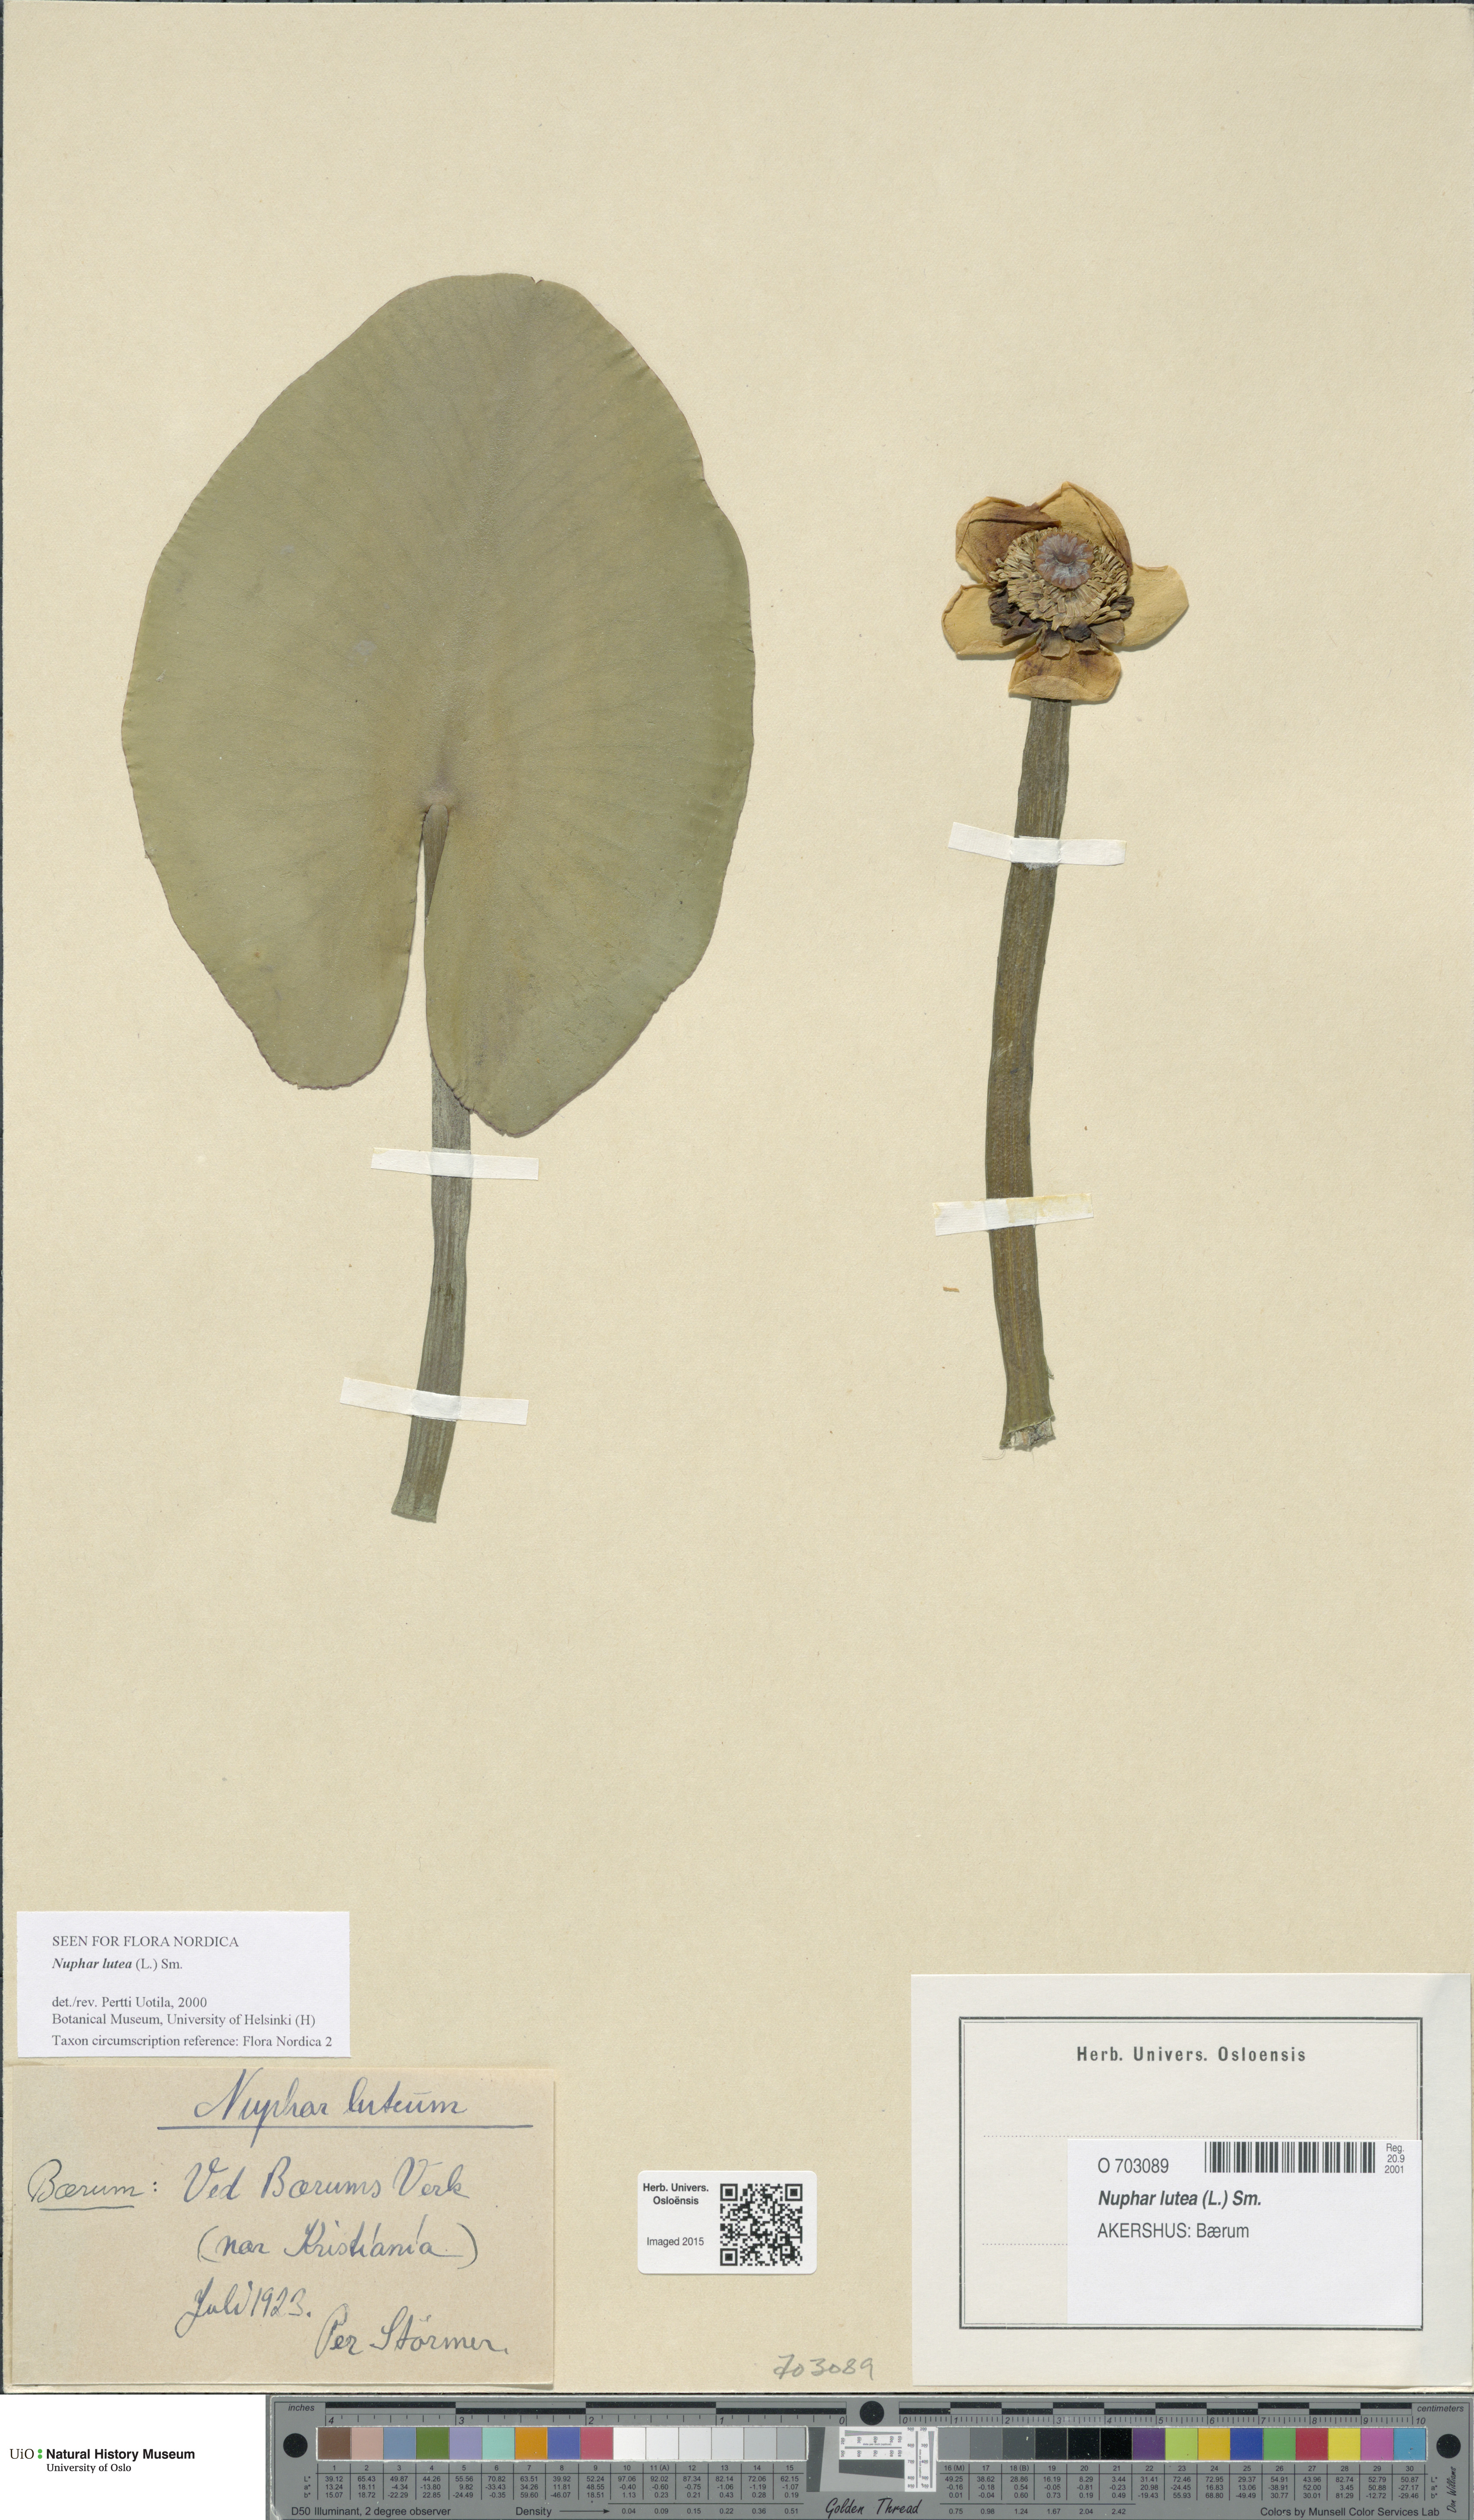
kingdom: Plantae
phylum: Tracheophyta
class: Magnoliopsida
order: Nymphaeales
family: Nymphaeaceae
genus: Nuphar
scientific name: Nuphar lutea
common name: Yellow water-lily
